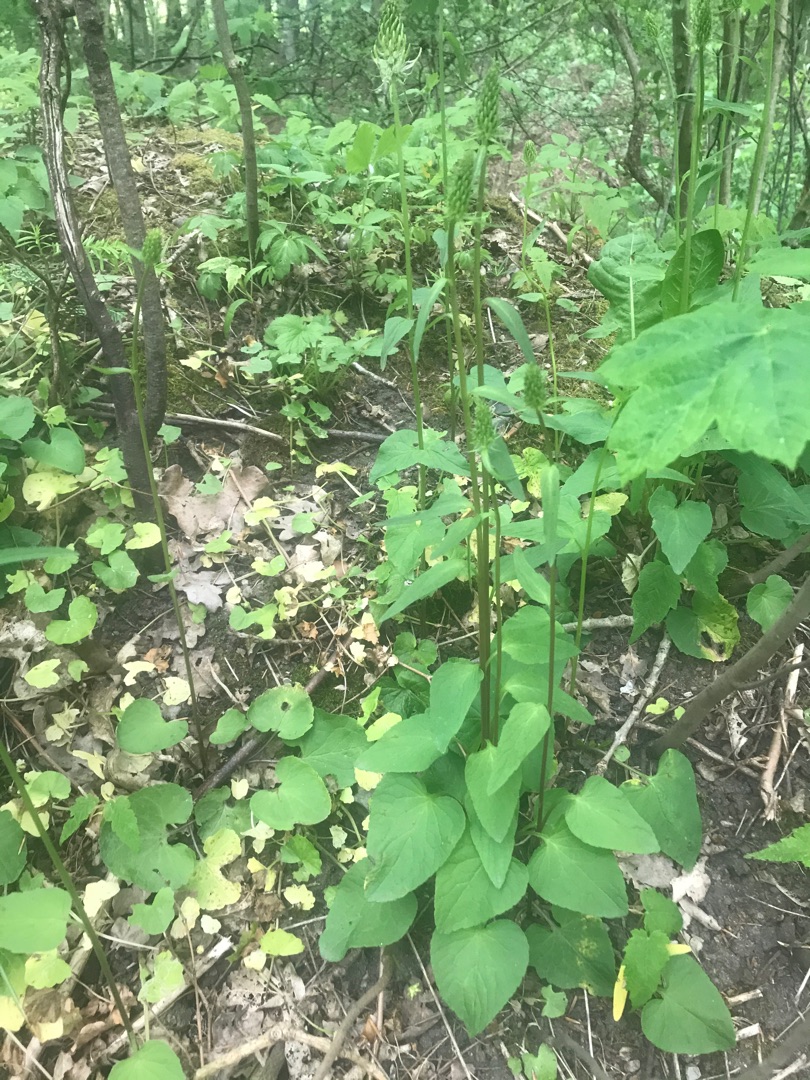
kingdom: Plantae
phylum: Tracheophyta
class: Magnoliopsida
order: Asterales
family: Campanulaceae
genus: Phyteuma
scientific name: Phyteuma spicatum
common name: Aks-rapunsel
